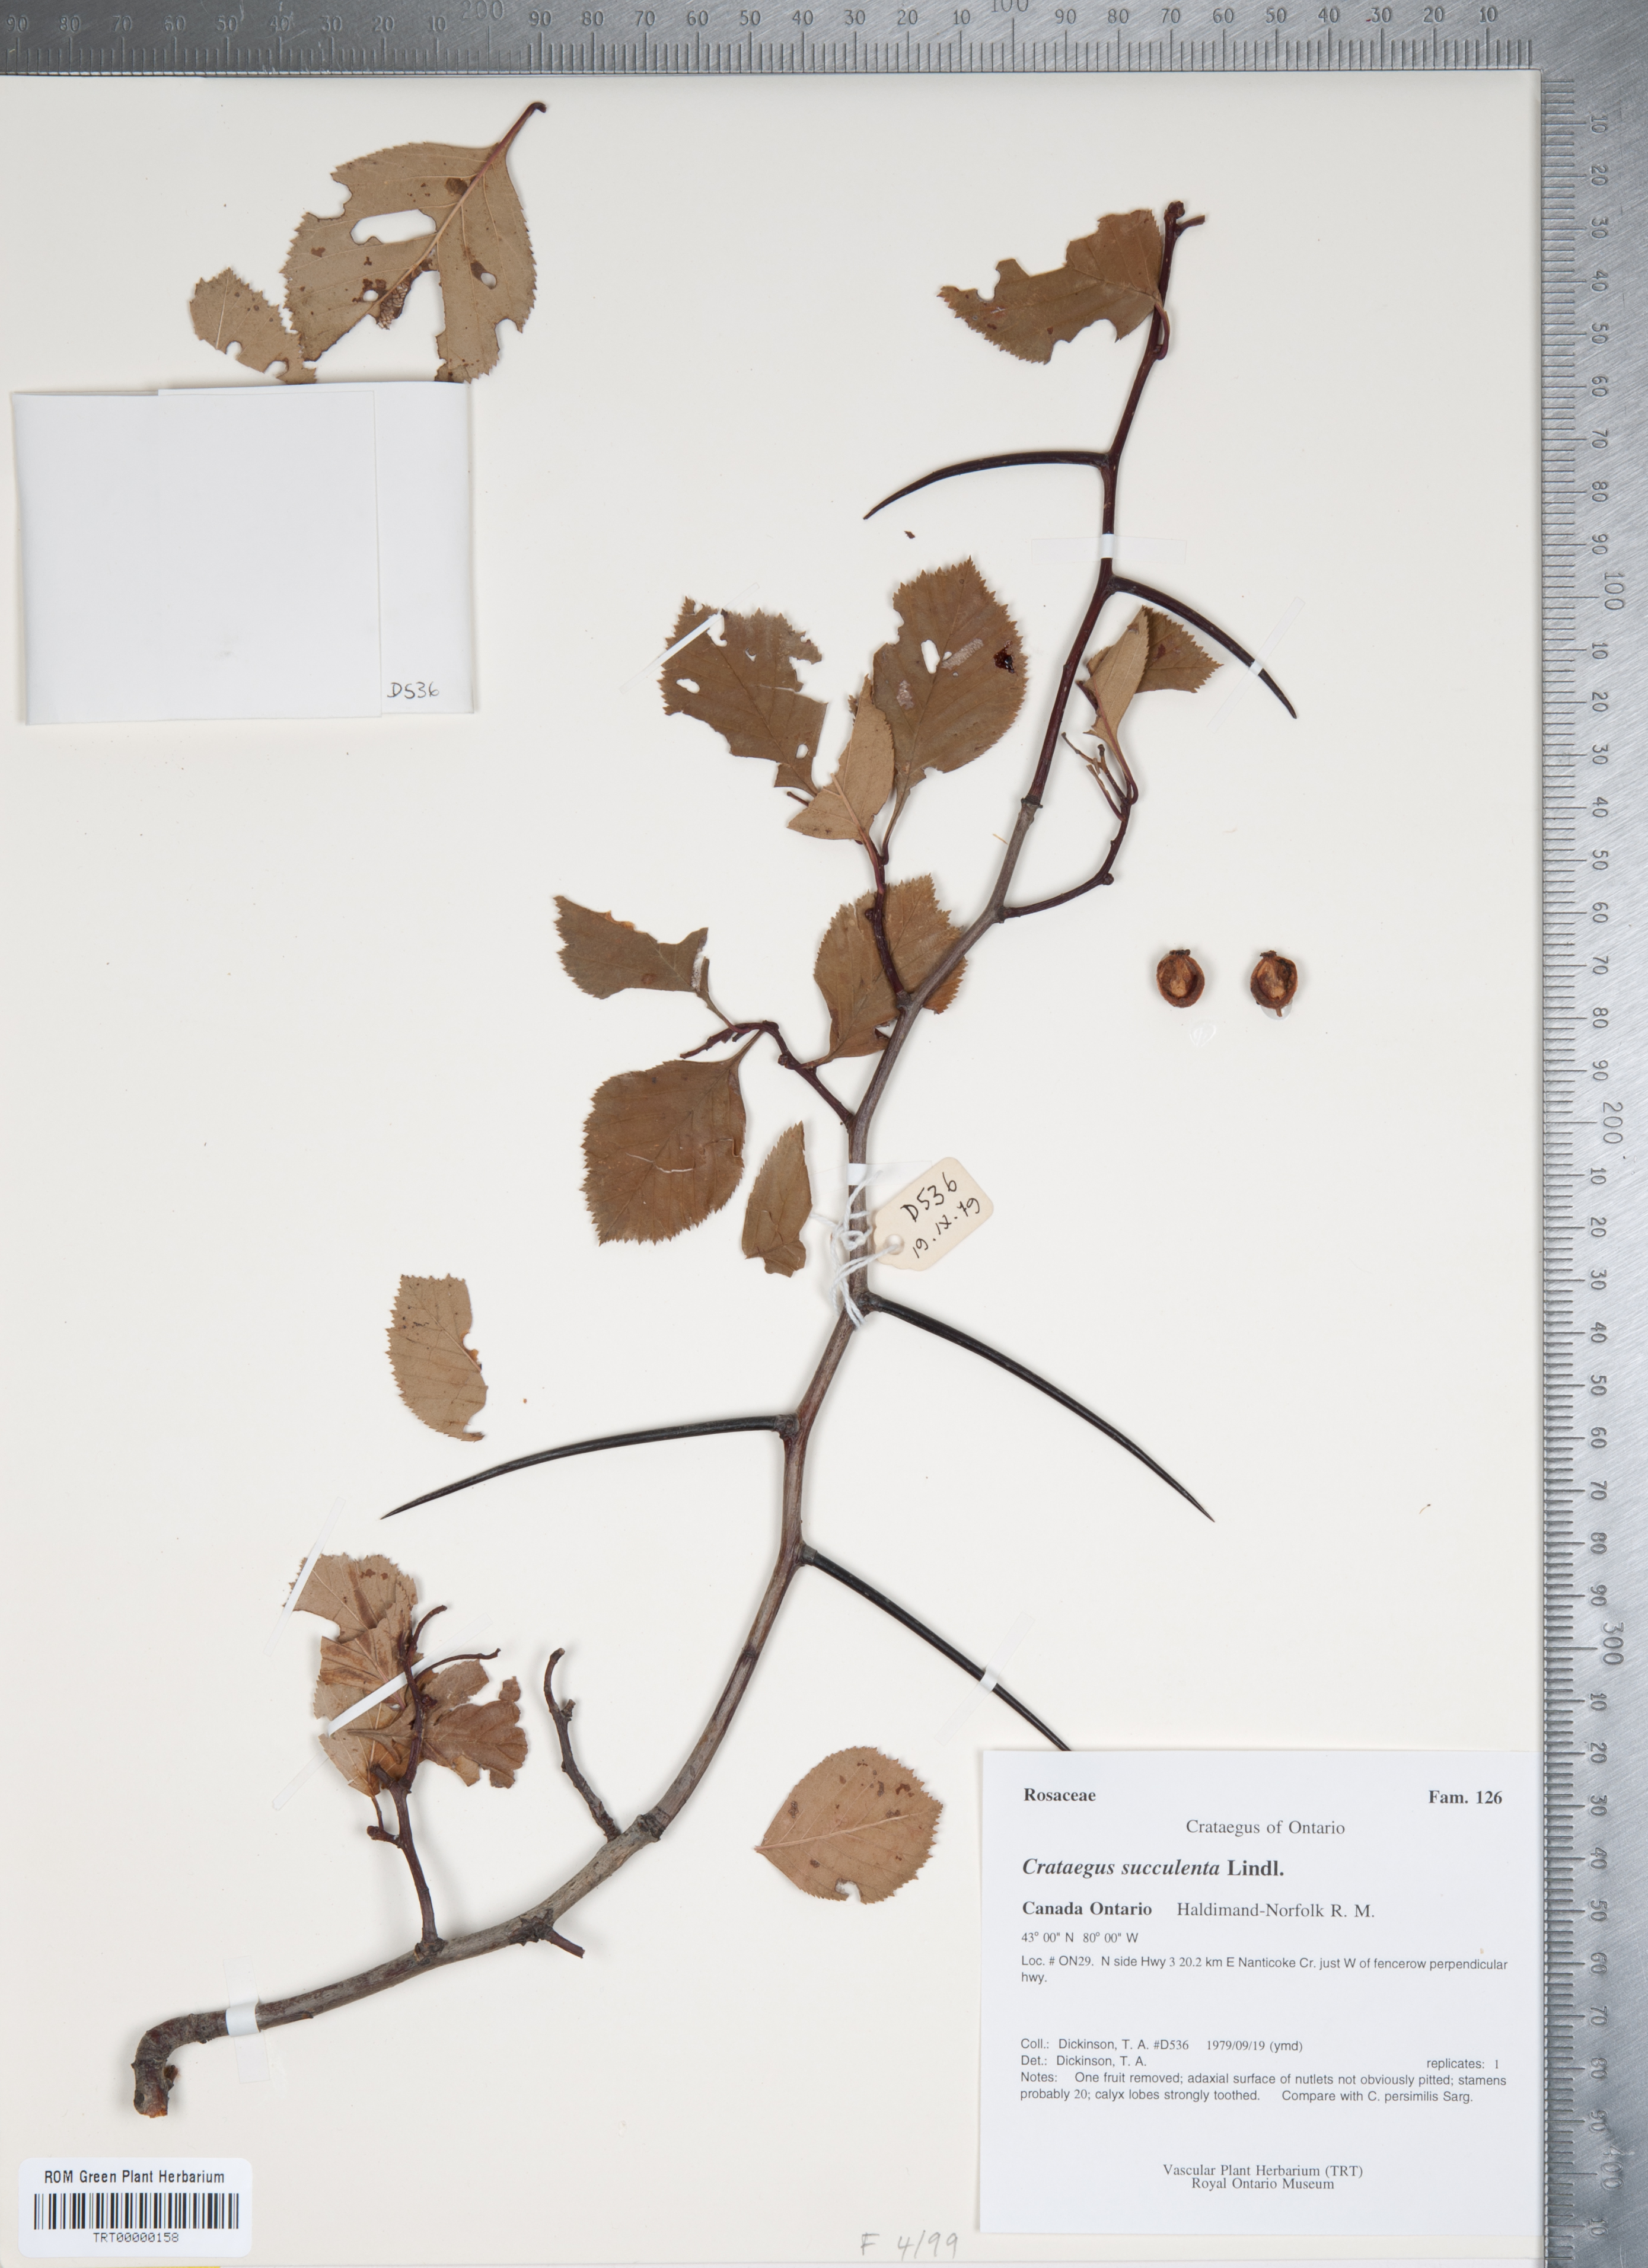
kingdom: Plantae
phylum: Tracheophyta
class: Magnoliopsida
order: Rosales
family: Rosaceae
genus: Crataegus
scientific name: Crataegus succulenta
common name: Fleshy hawthorn
